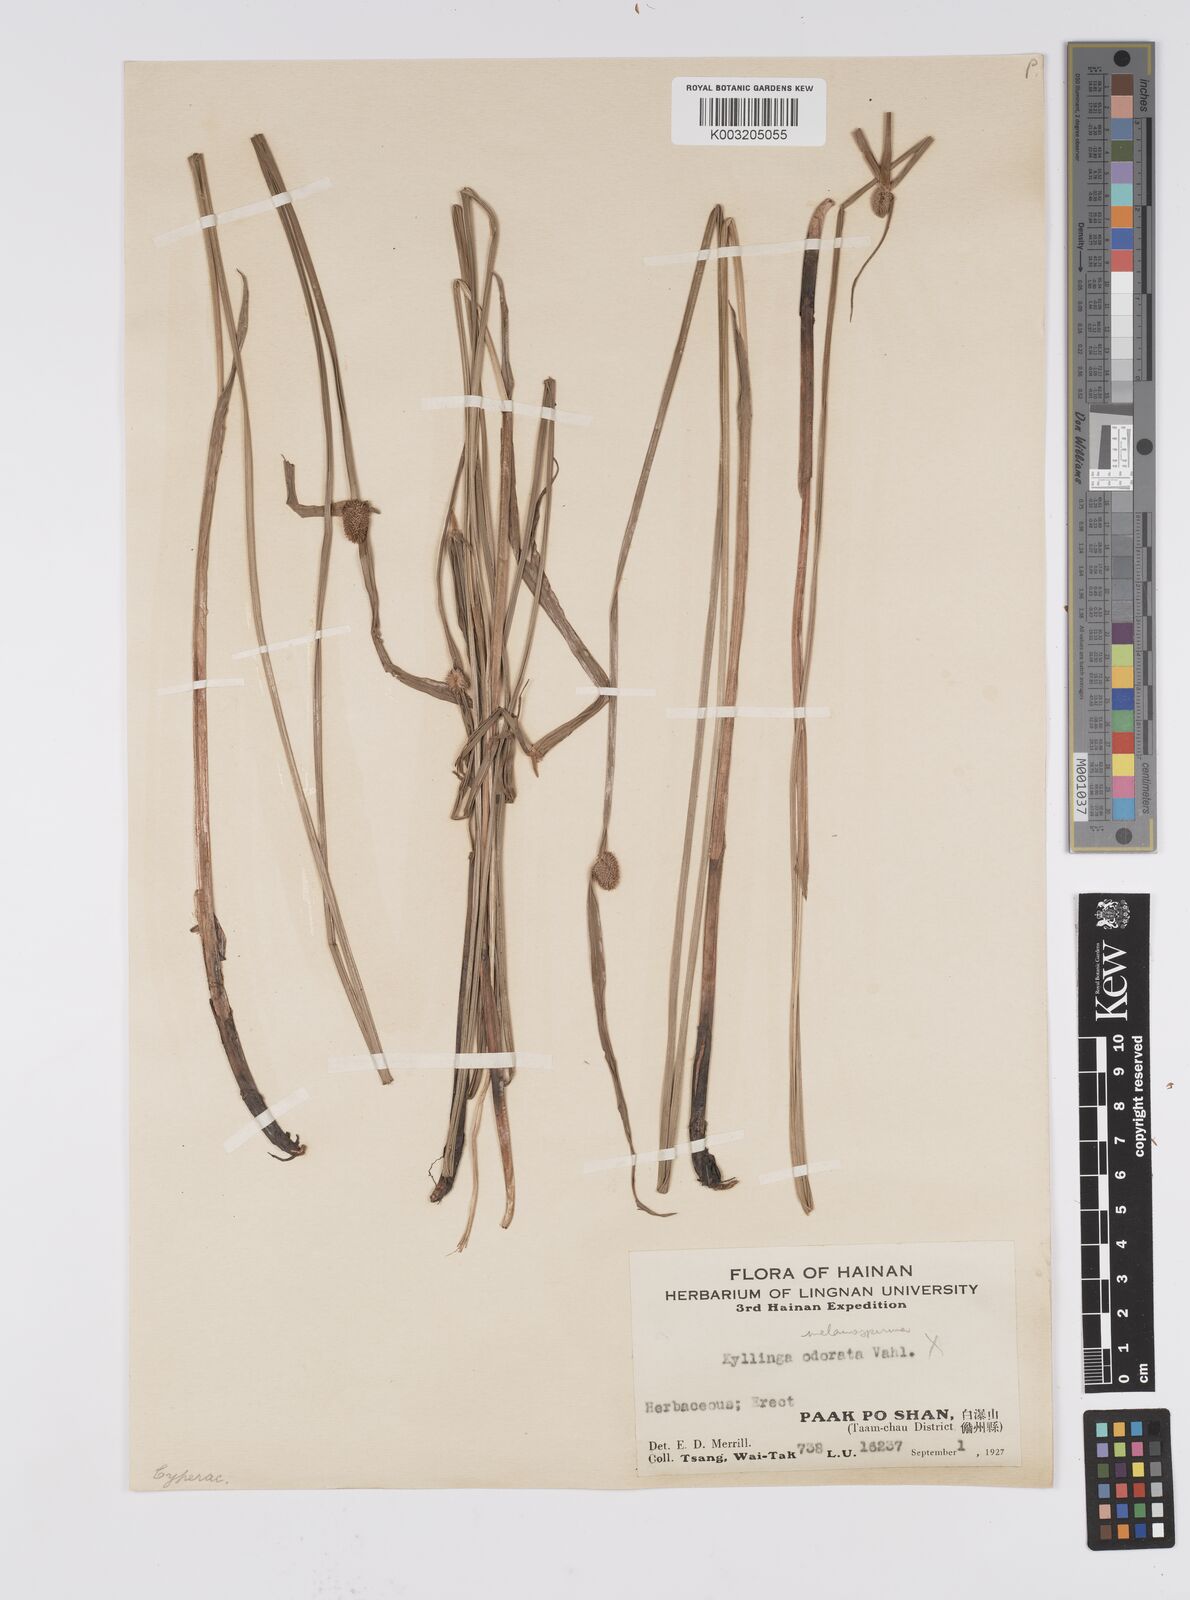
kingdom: Plantae
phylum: Tracheophyta
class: Liliopsida
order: Poales
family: Cyperaceae
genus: Cyperus
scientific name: Cyperus melanospermus
